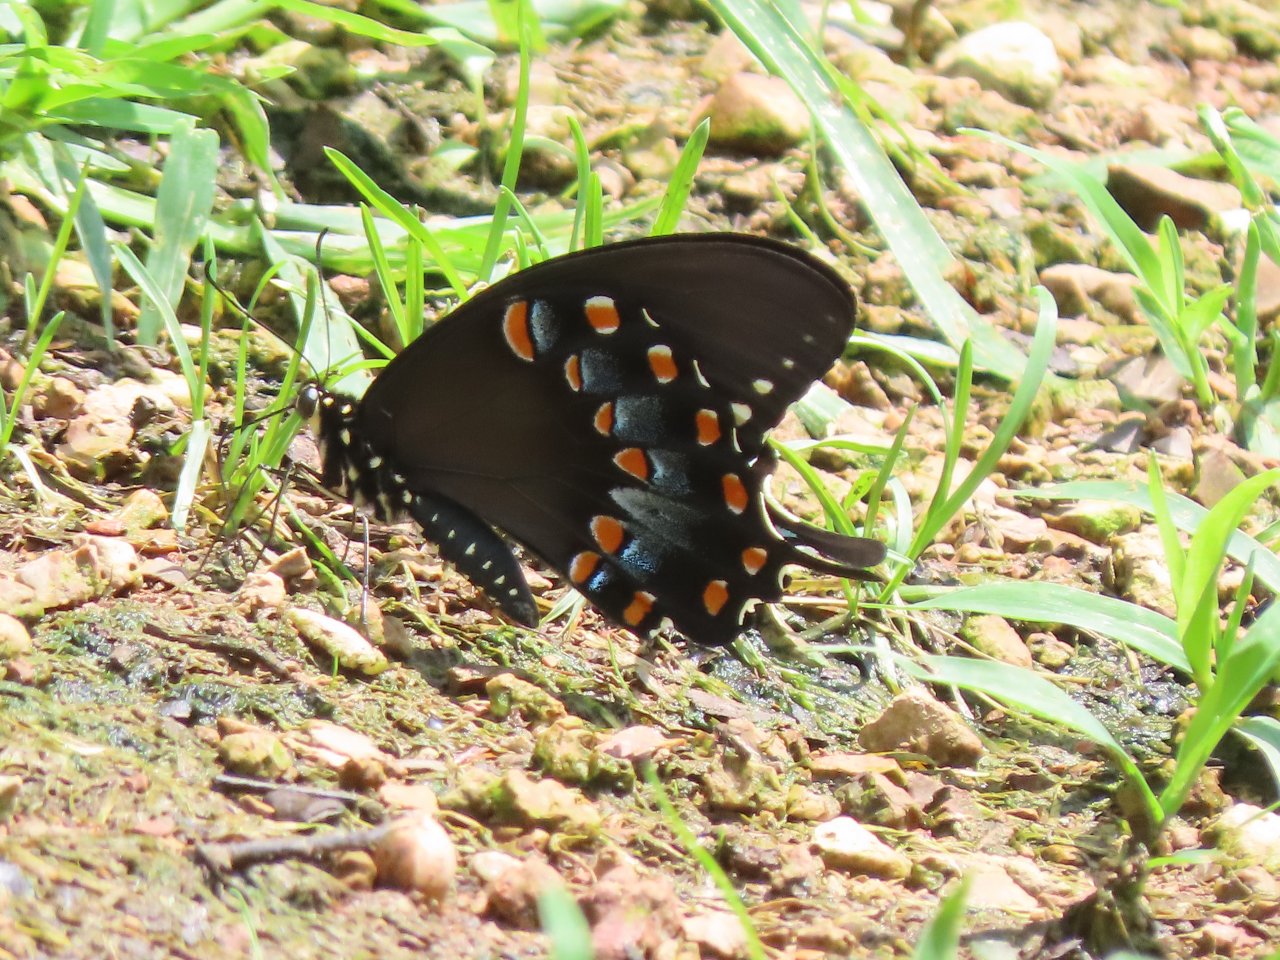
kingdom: Animalia
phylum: Arthropoda
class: Insecta
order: Lepidoptera
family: Papilionidae
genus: Pterourus
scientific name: Pterourus troilus
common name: Spicebush Swallowtail
